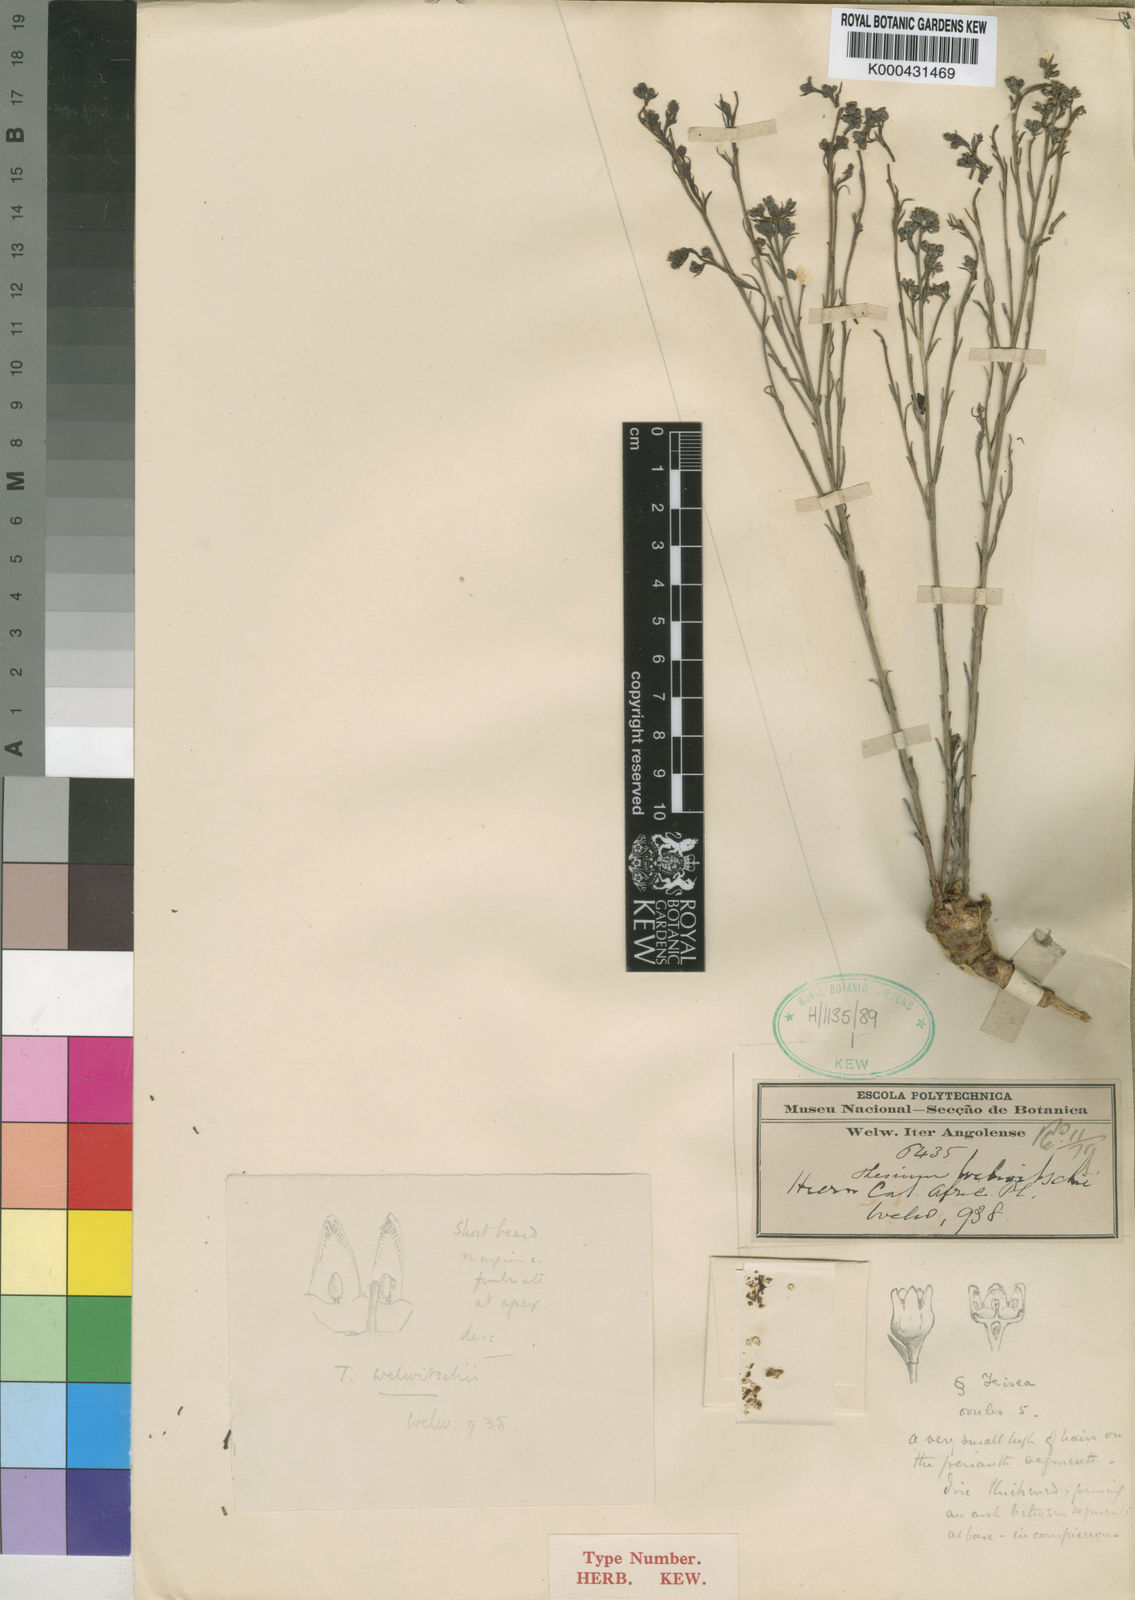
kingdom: Plantae
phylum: Tracheophyta
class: Magnoliopsida
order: Santalales
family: Thesiaceae
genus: Thesium
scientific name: Thesium welwitschii
